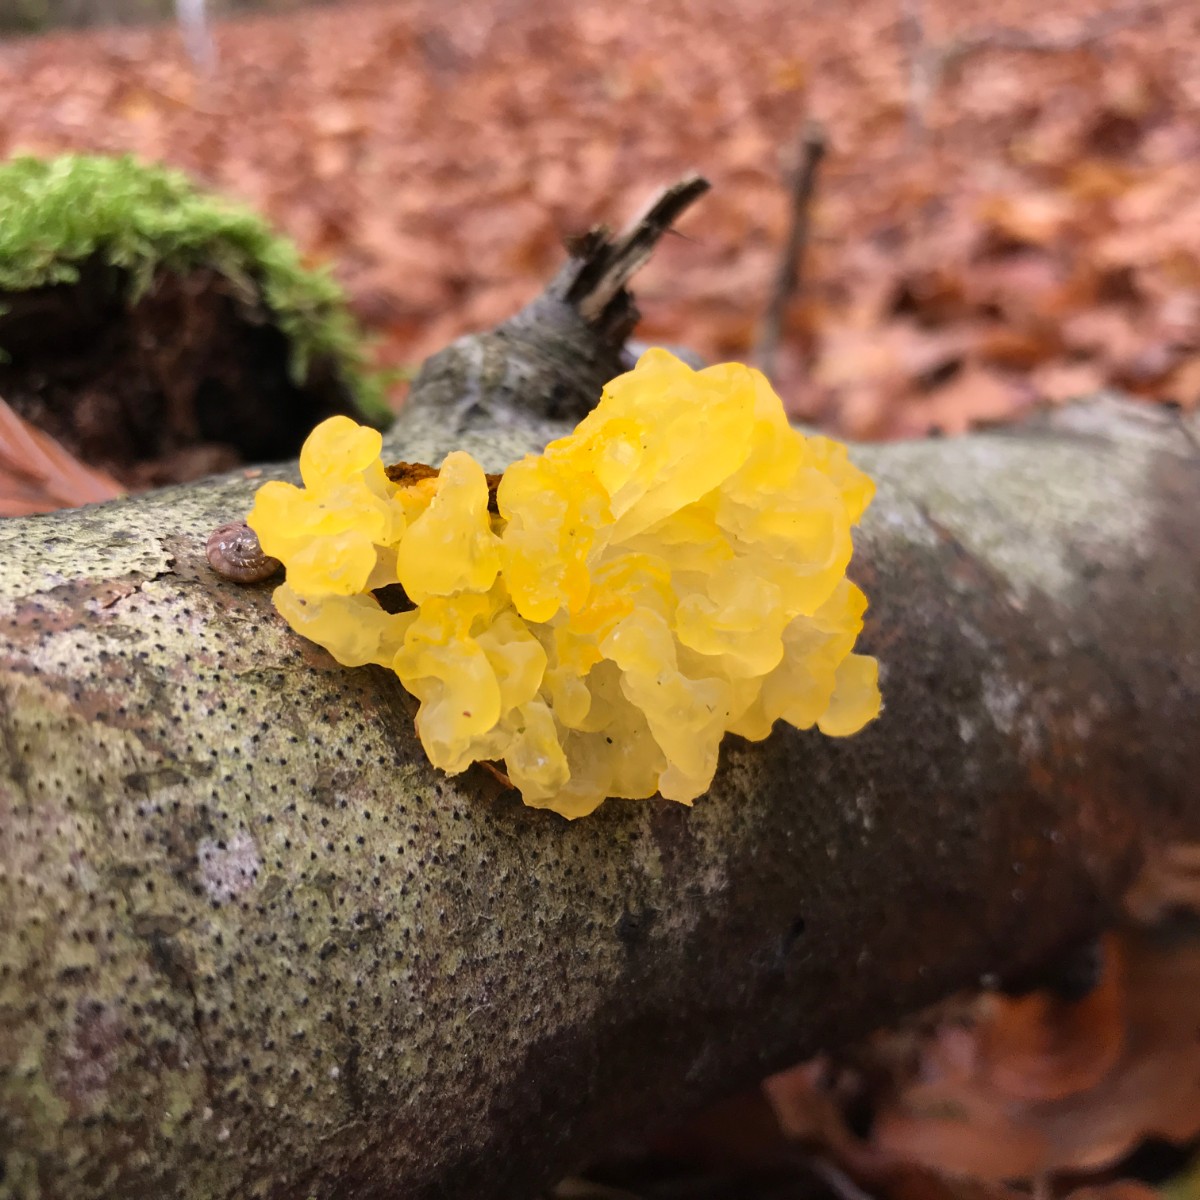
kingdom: Fungi
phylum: Basidiomycota
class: Tremellomycetes
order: Tremellales
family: Tremellaceae
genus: Tremella
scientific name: Tremella mesenterica
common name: gul bævresvamp
